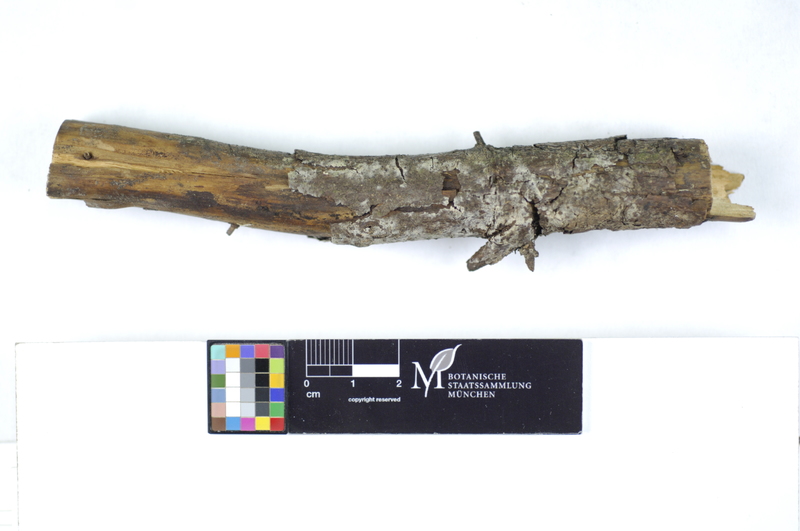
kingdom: Plantae
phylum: Tracheophyta
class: Pinopsida
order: Pinales
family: Pinaceae
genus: Picea
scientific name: Picea
